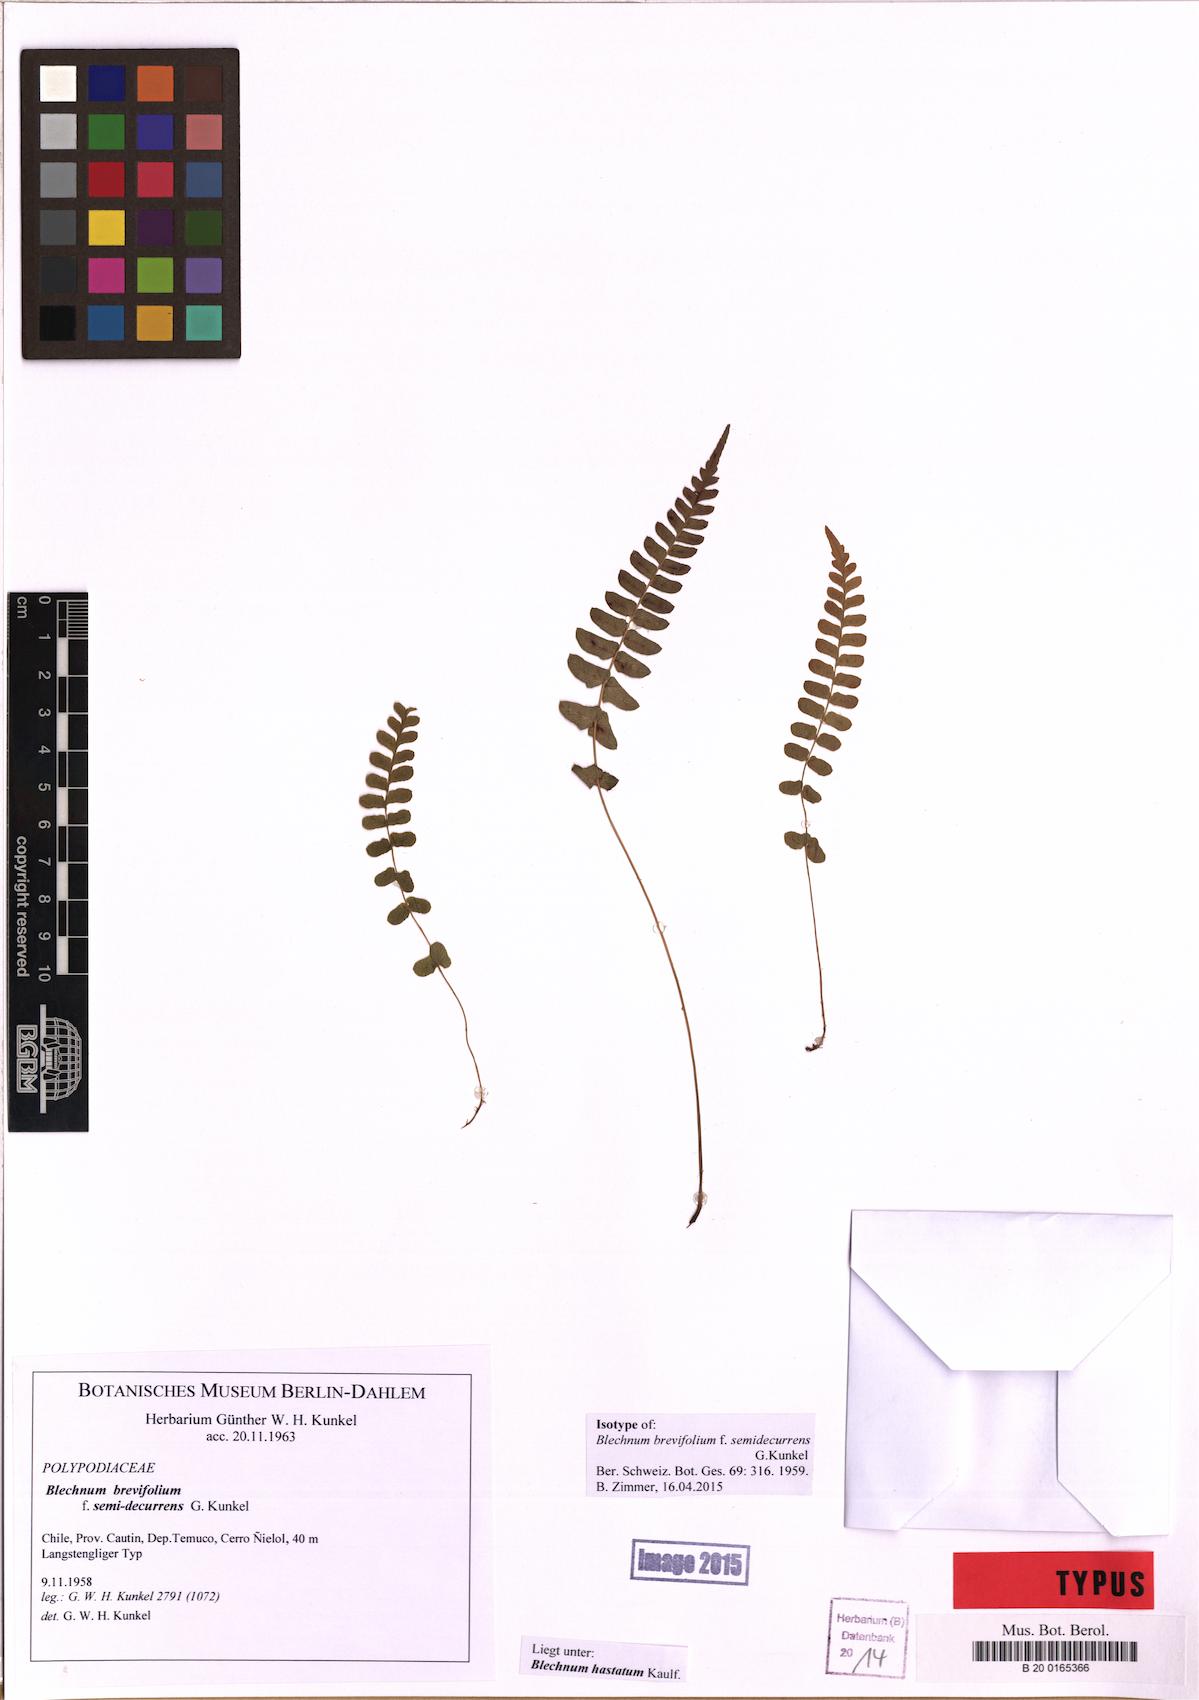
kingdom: Plantae
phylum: Tracheophyta
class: Polypodiopsida
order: Polypodiales
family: Blechnaceae
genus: Blechnum
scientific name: Blechnum hastatum
